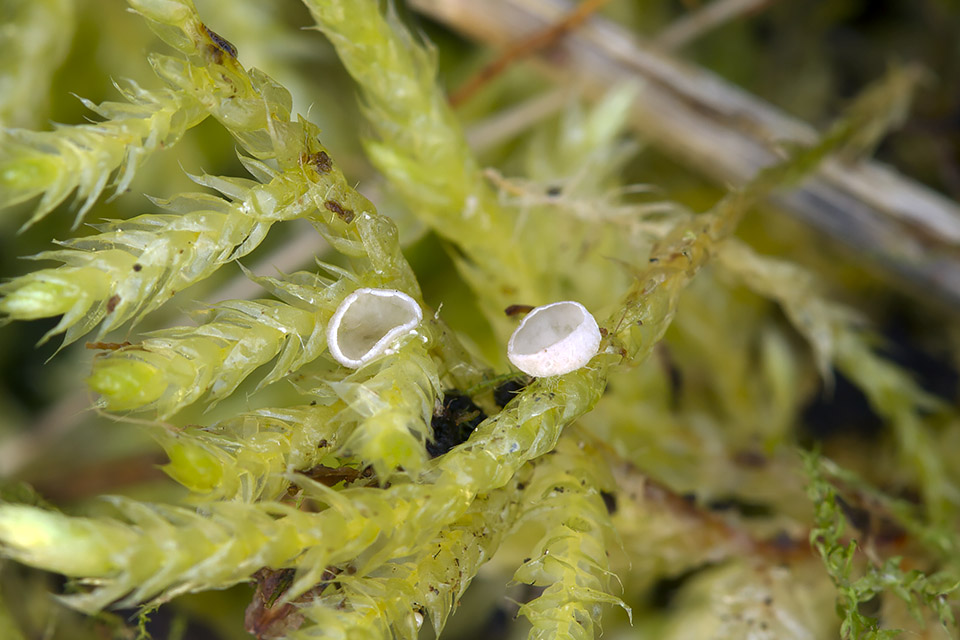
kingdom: Fungi
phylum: Basidiomycota
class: Agaricomycetes
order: Agaricales
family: Hygrophoraceae
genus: Arrhenia
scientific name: Arrhenia retiruga
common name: lille fontænehat
